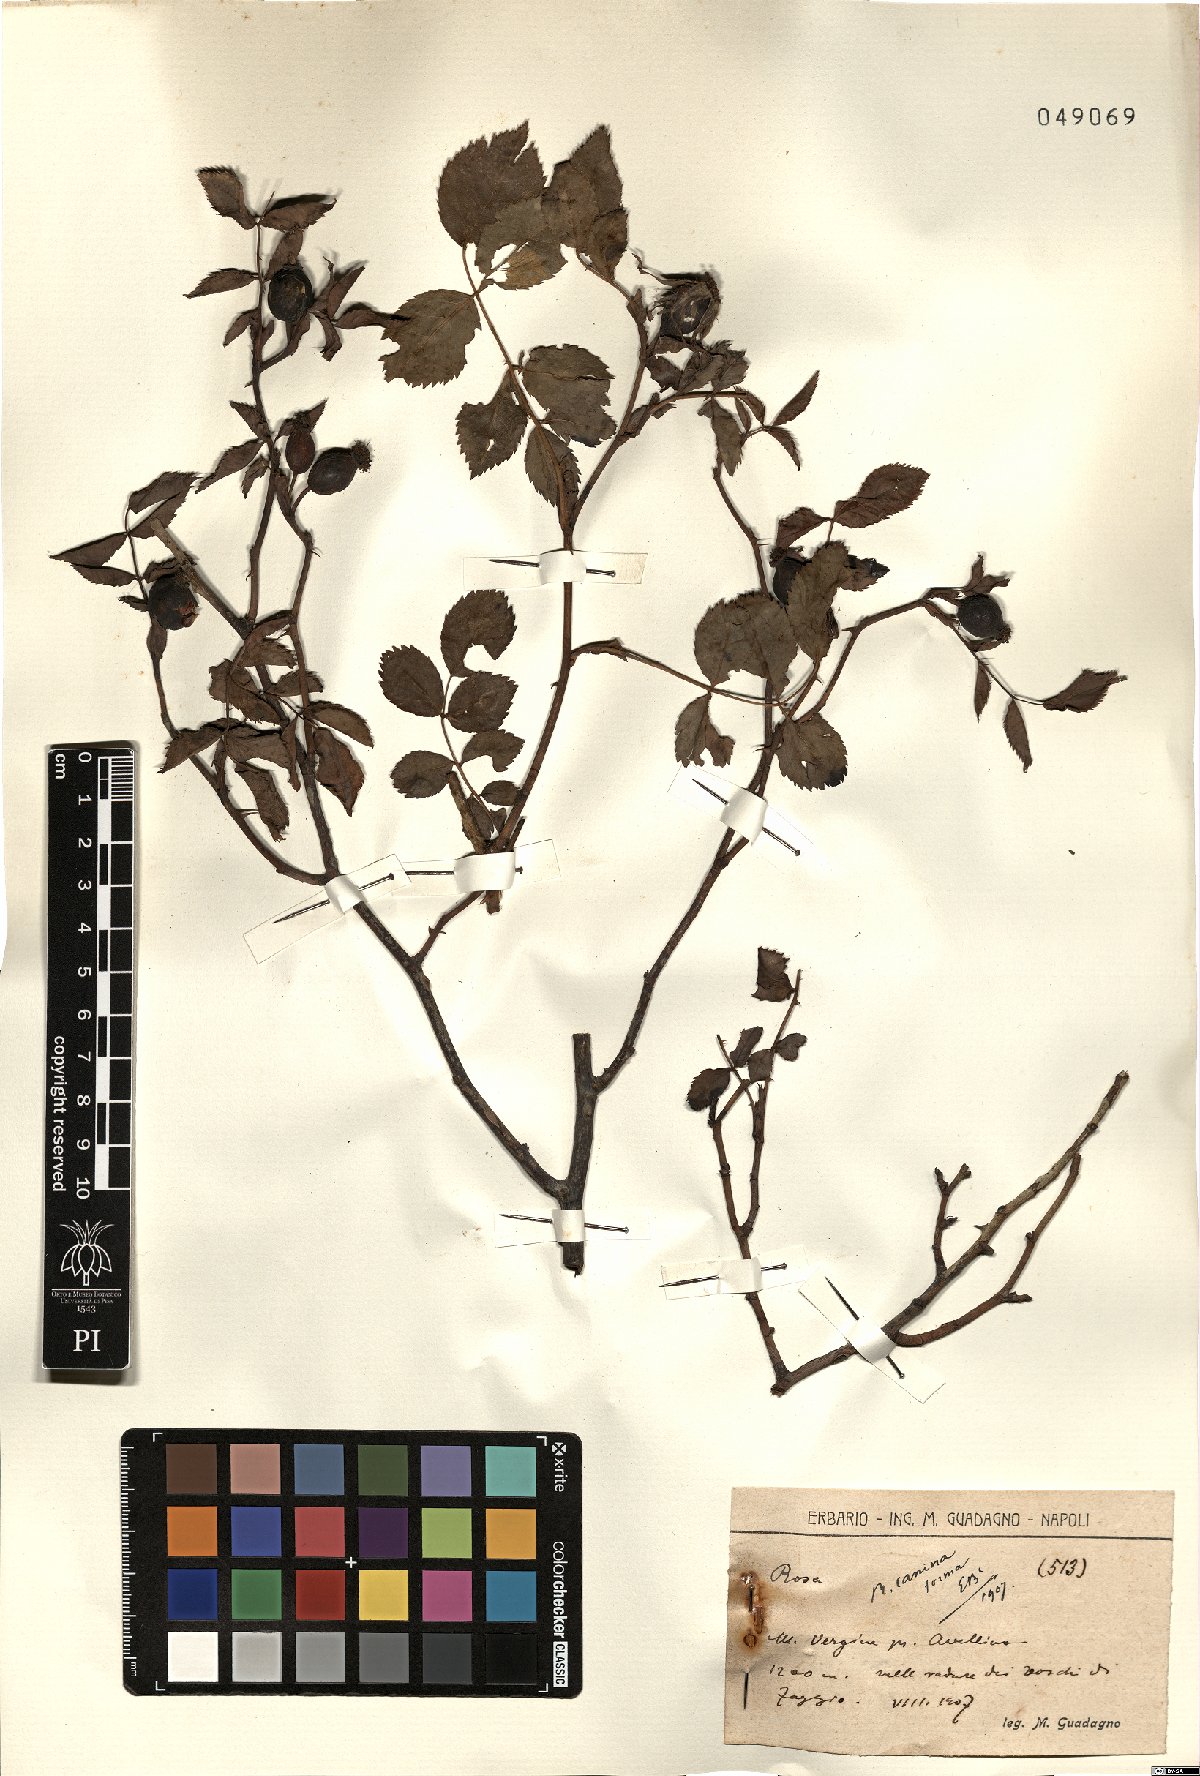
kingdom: Plantae
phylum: Tracheophyta
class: Magnoliopsida
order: Rosales
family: Rosaceae
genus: Rosa
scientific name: Rosa canina
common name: Dog rose
